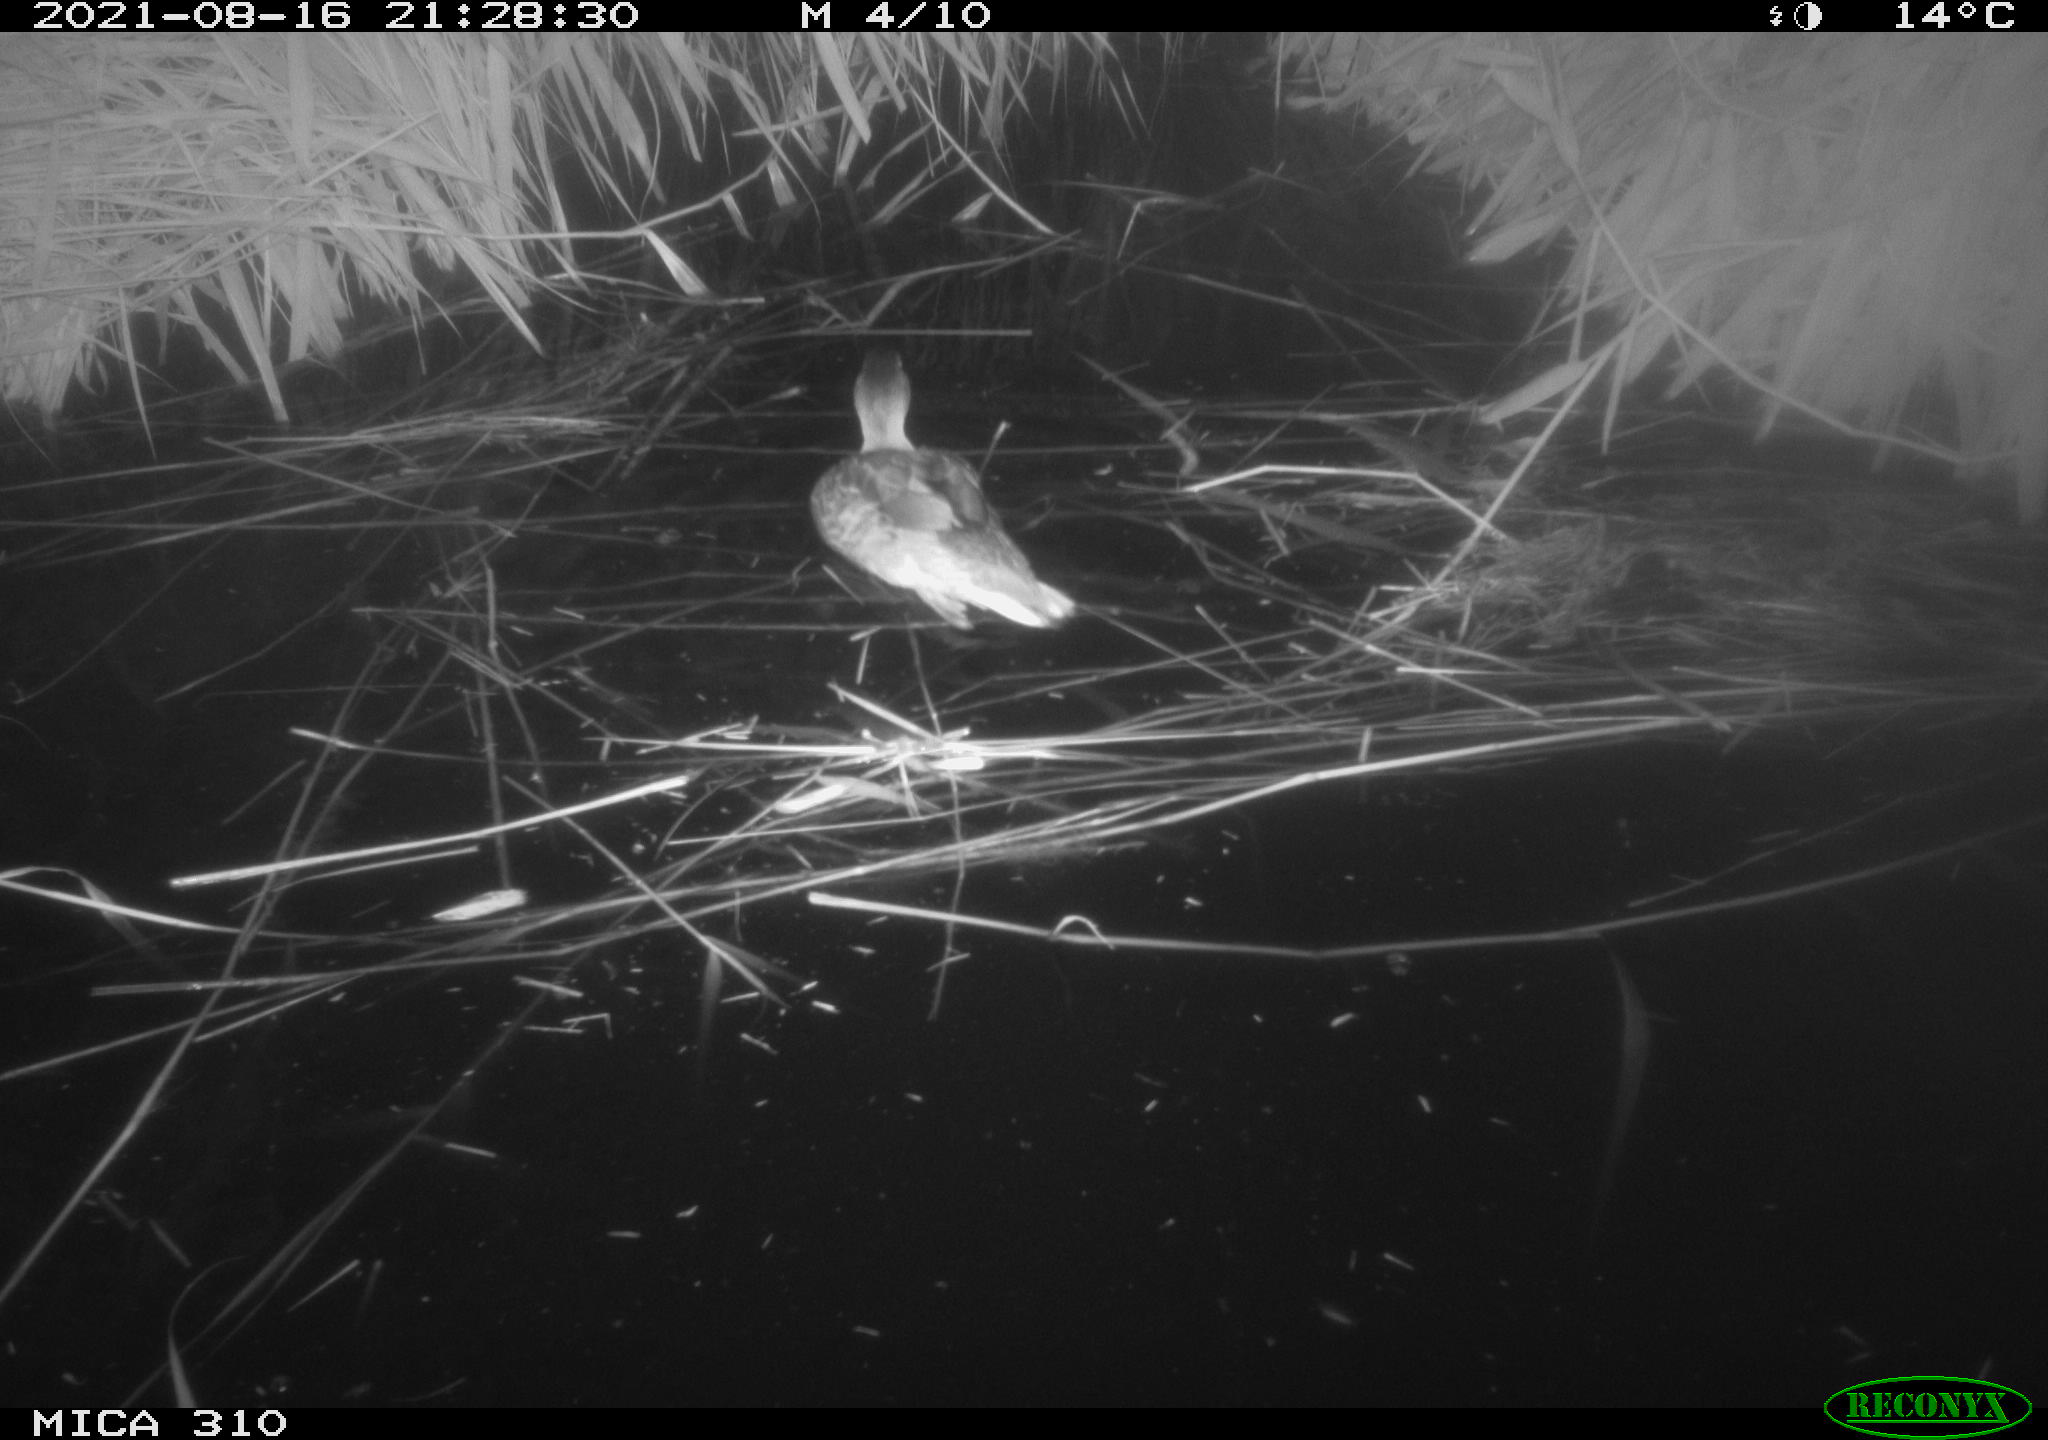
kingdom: Animalia
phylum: Chordata
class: Aves
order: Anseriformes
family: Anatidae
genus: Anas
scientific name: Anas platyrhynchos
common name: Mallard
